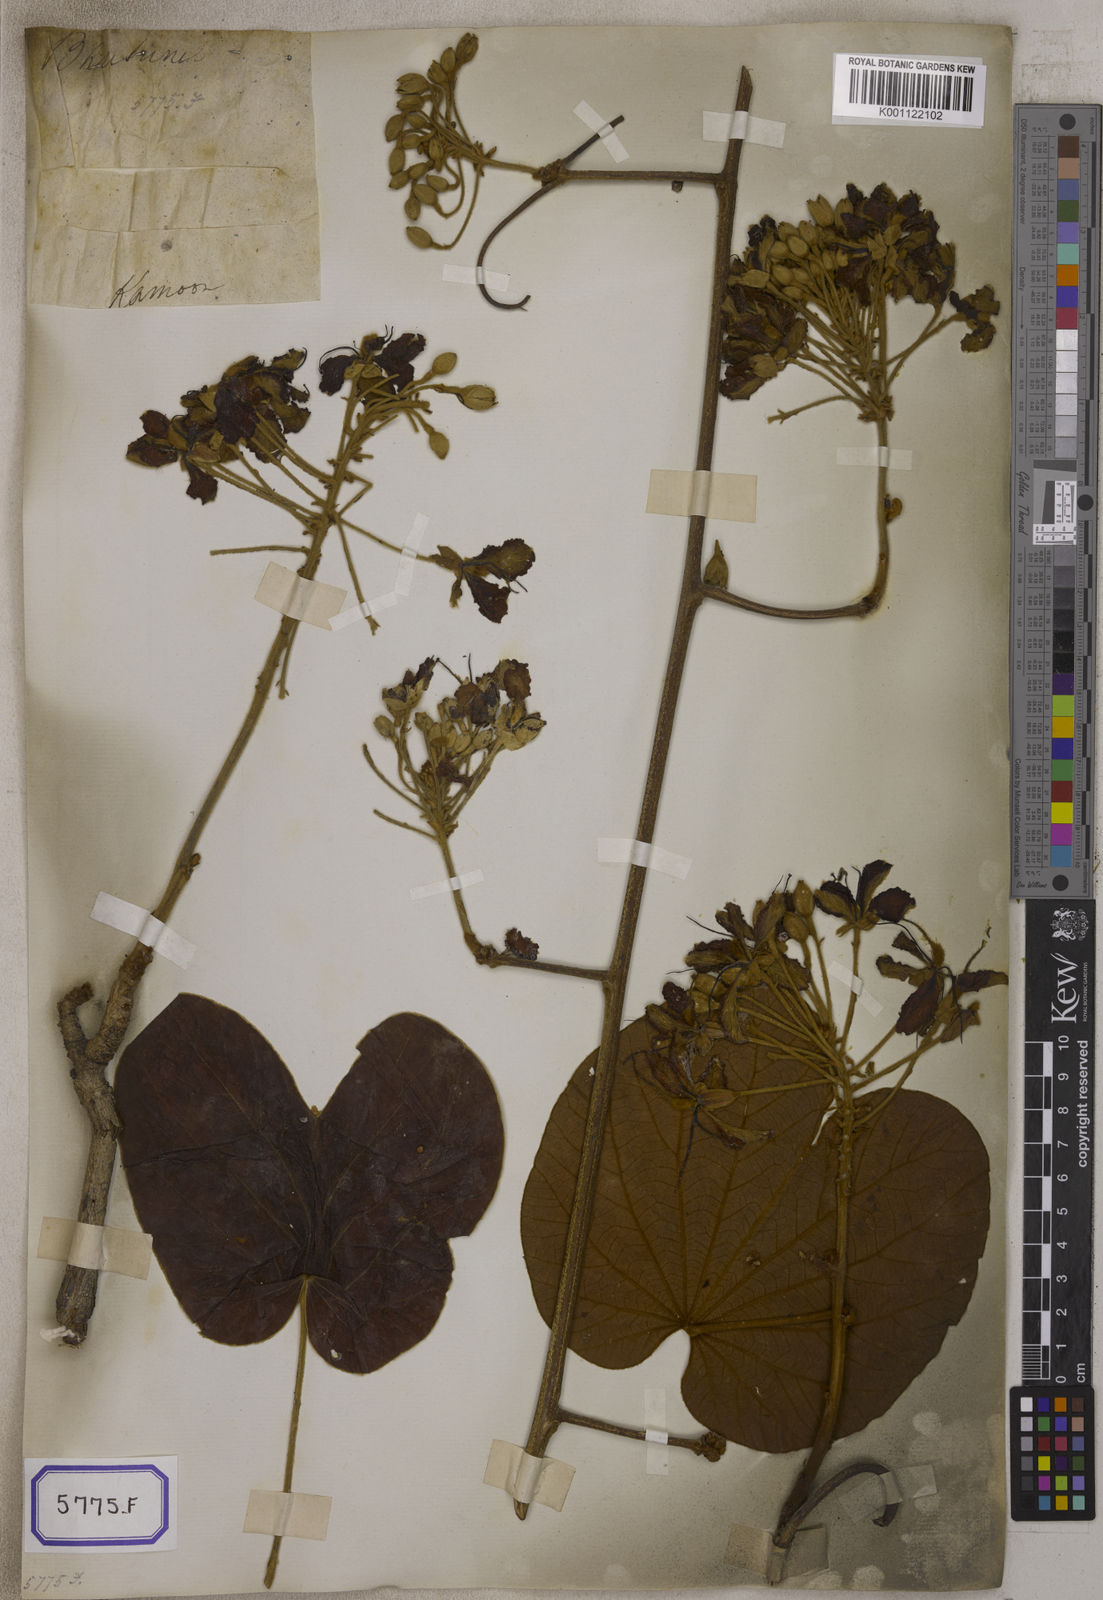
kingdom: Plantae
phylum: Tracheophyta
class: Magnoliopsida
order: Fabales
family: Fabaceae
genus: Bauhinia
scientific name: Bauhinia
